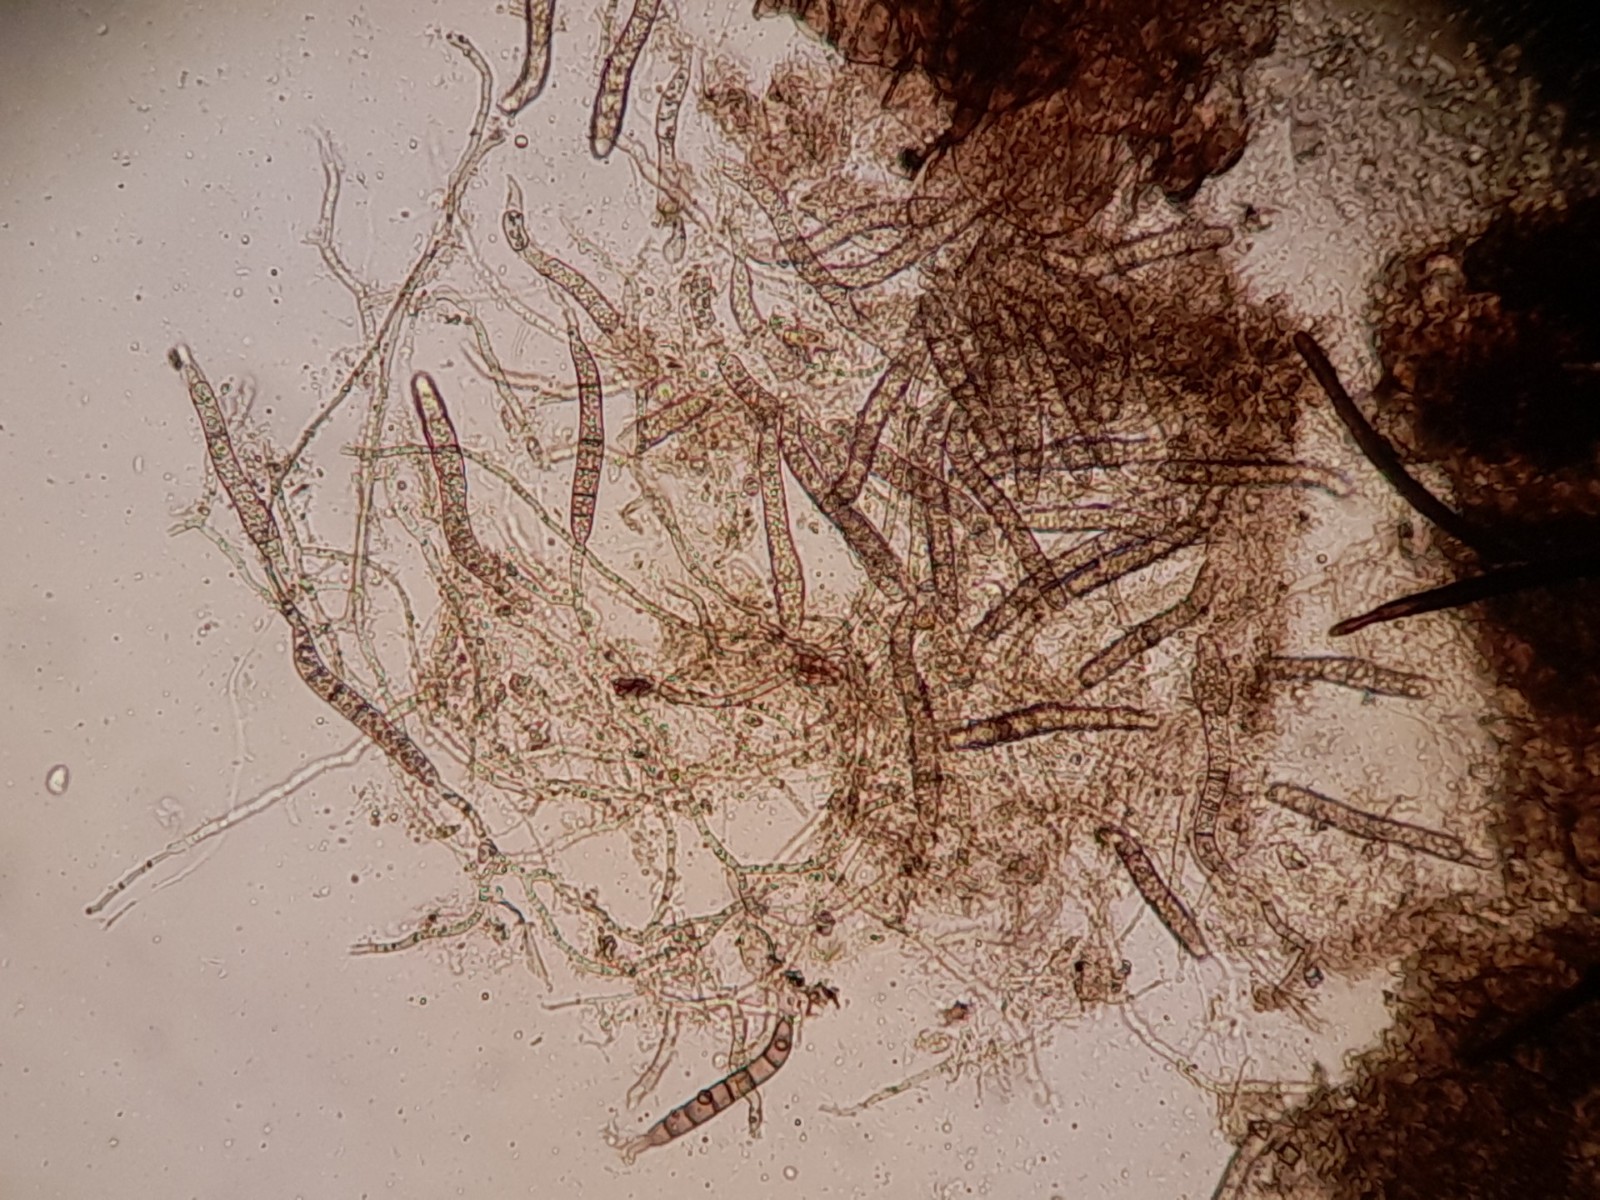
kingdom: Fungi
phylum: Ascomycota
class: Sordariomycetes
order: Sordariales
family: Lasiosphaeriaceae
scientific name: Lasiosphaeriaceae
